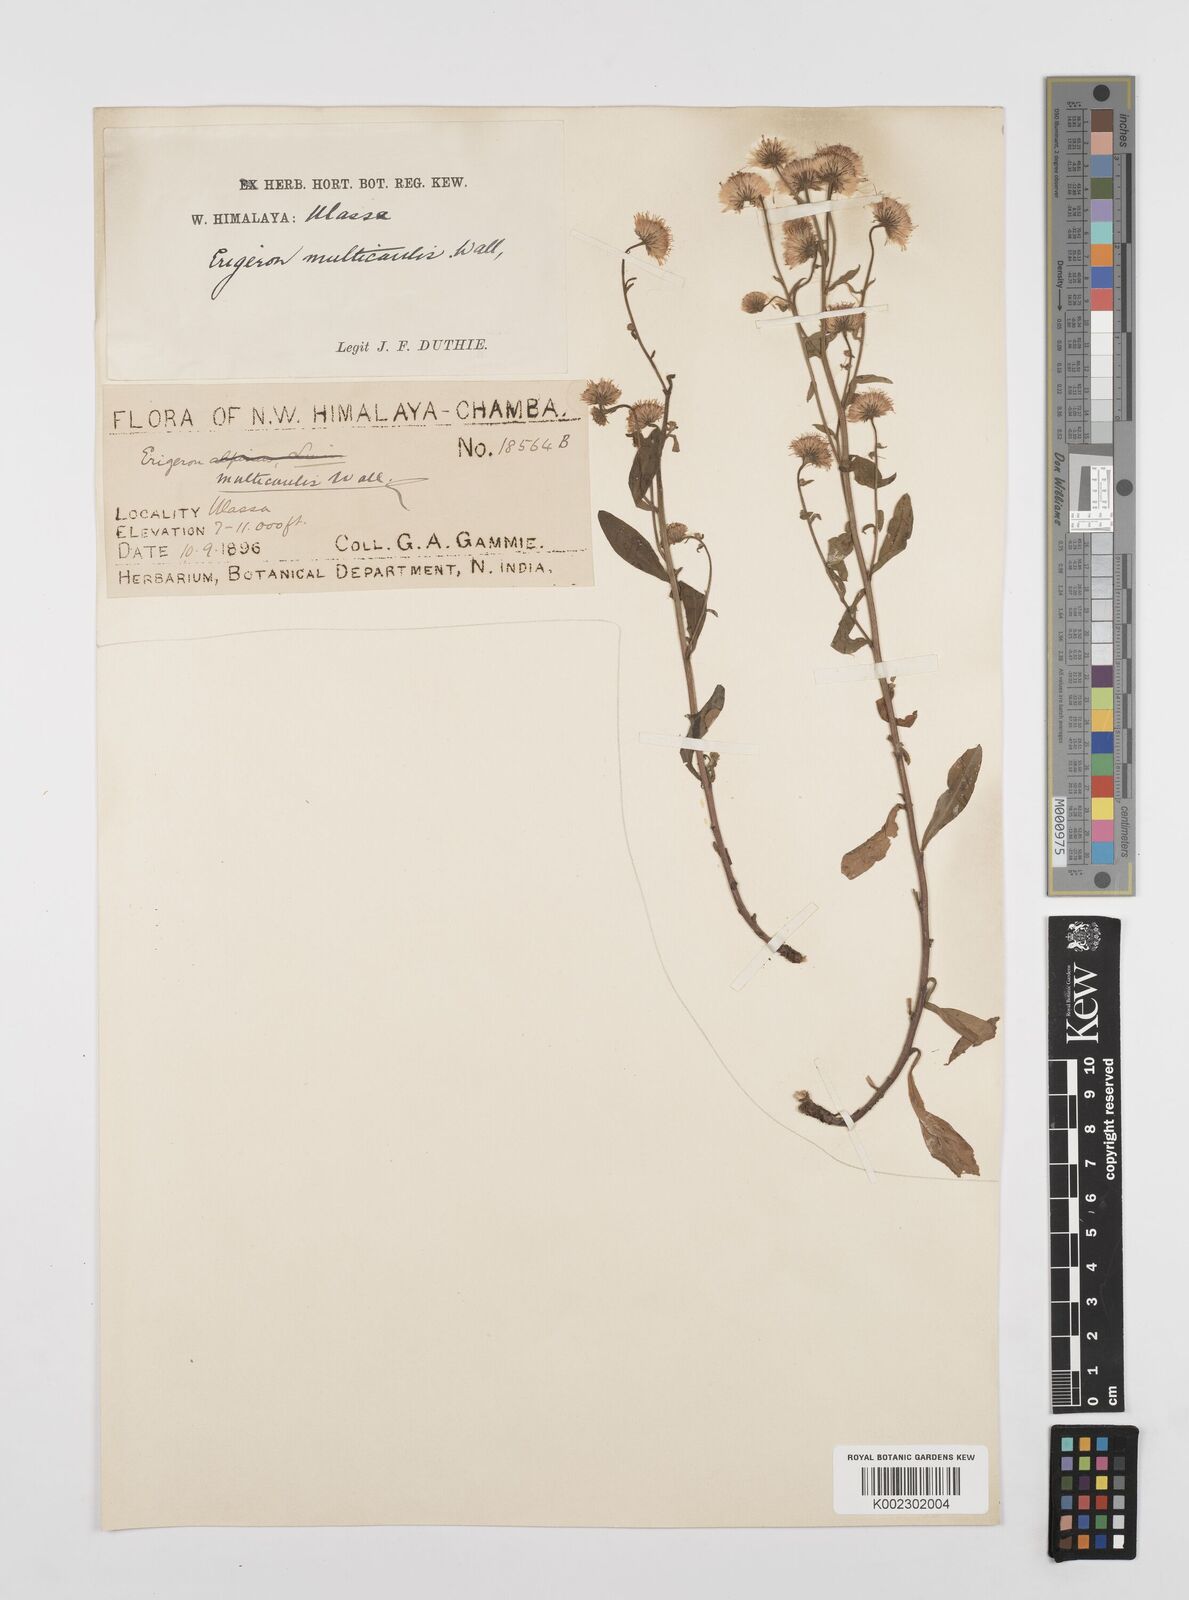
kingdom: Plantae
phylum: Tracheophyta
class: Magnoliopsida
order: Asterales
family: Asteraceae
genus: Erigeron
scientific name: Erigeron alpinus
